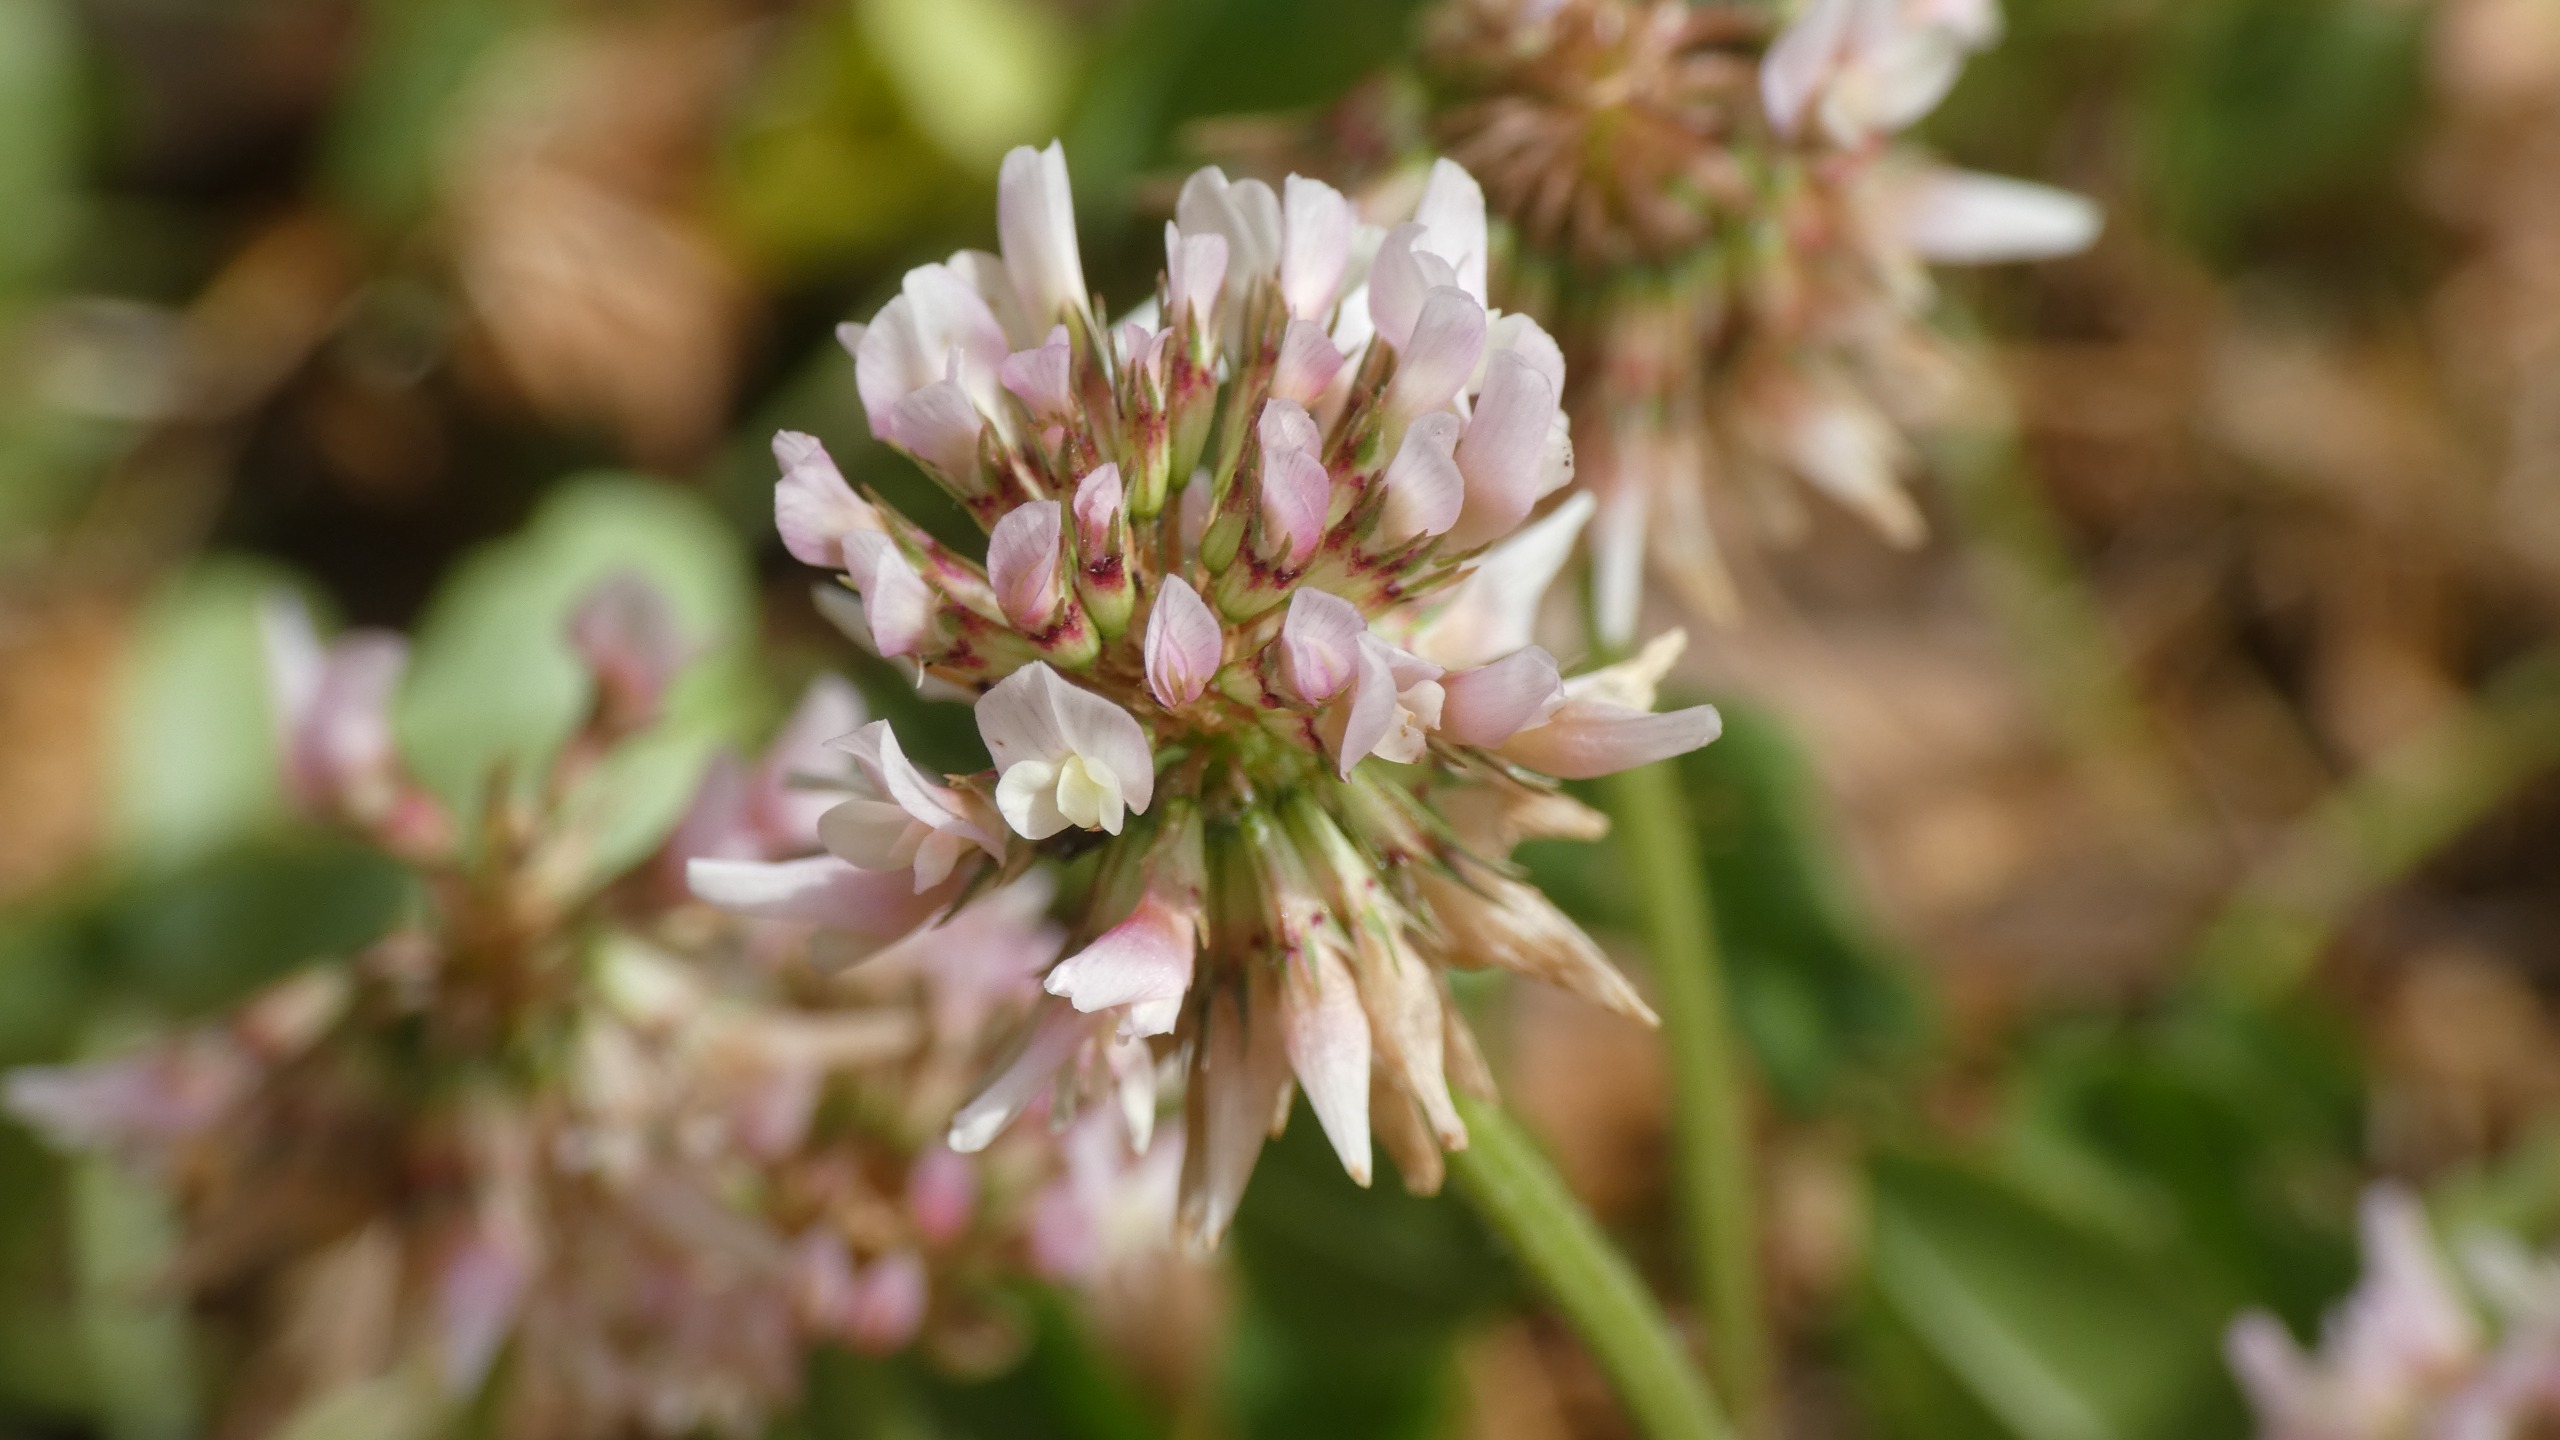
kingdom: Plantae
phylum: Tracheophyta
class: Magnoliopsida
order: Fabales
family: Fabaceae
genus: Trifolium
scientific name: Trifolium repens
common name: Hvid-kløver
